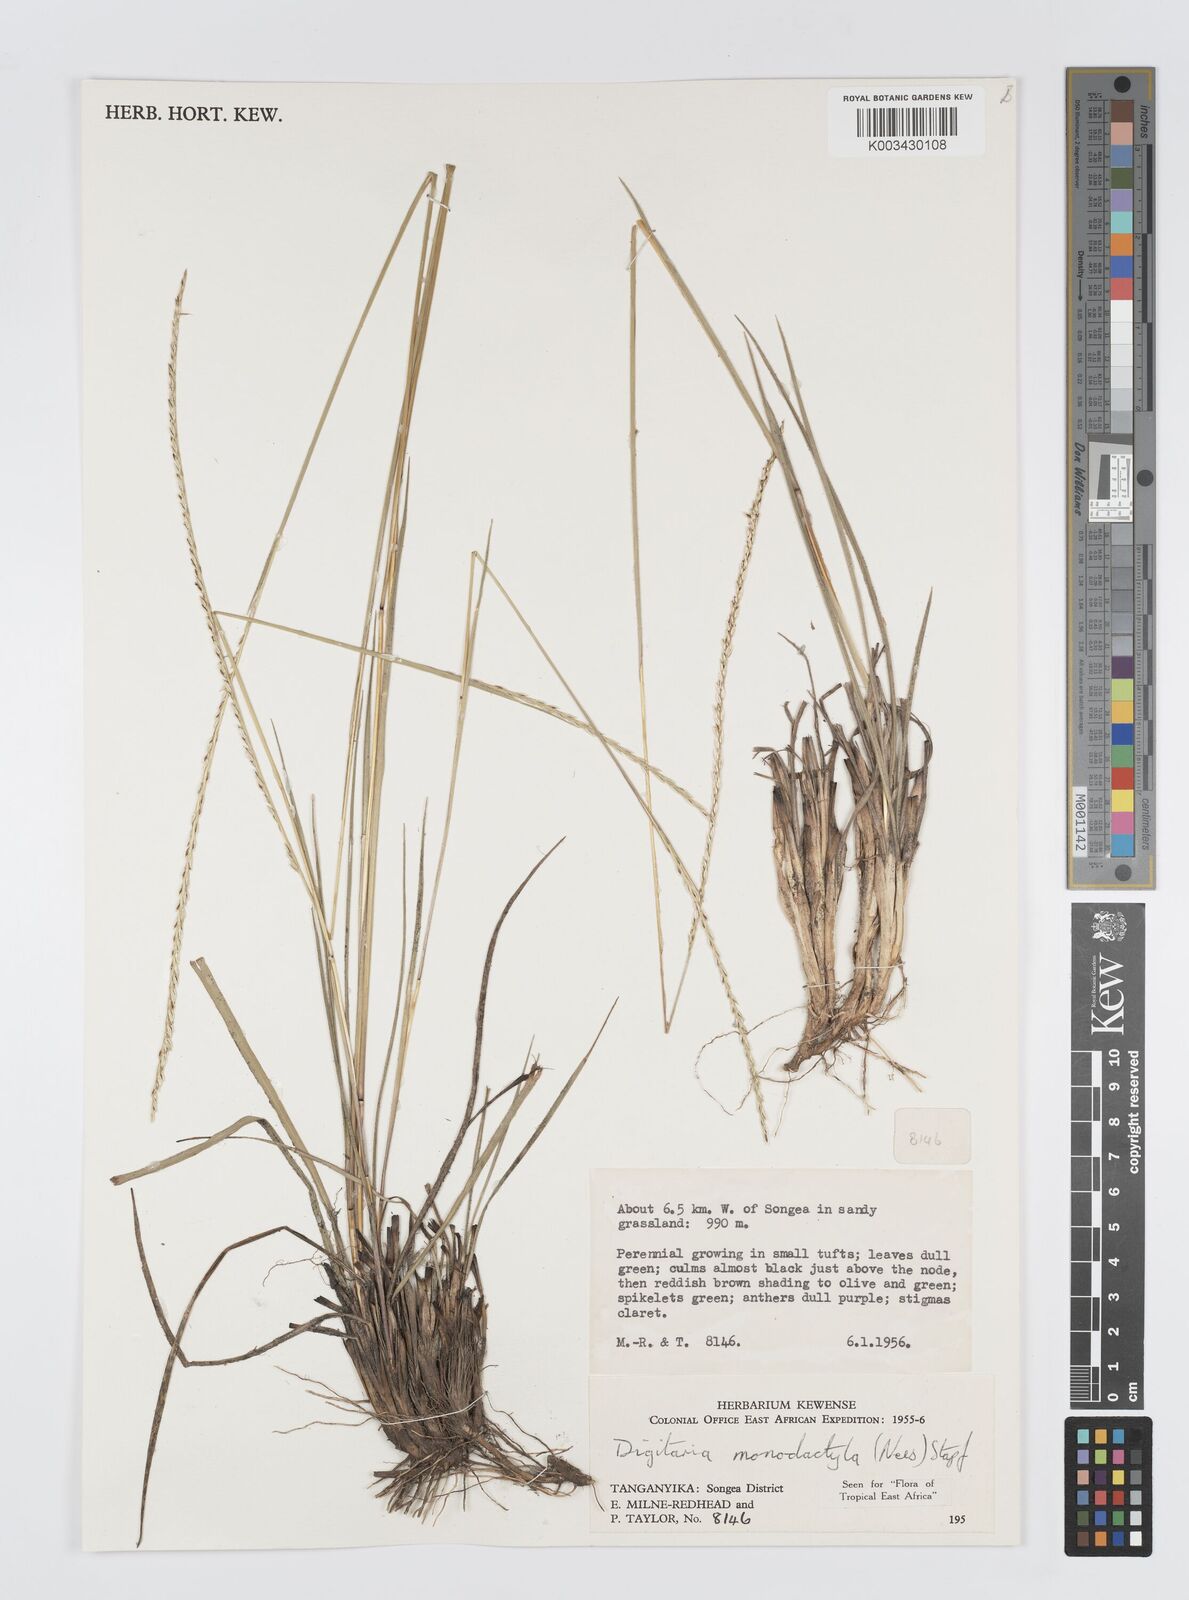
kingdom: Plantae
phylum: Tracheophyta
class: Liliopsida
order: Poales
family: Poaceae
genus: Digitaria
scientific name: Digitaria monodactyla
